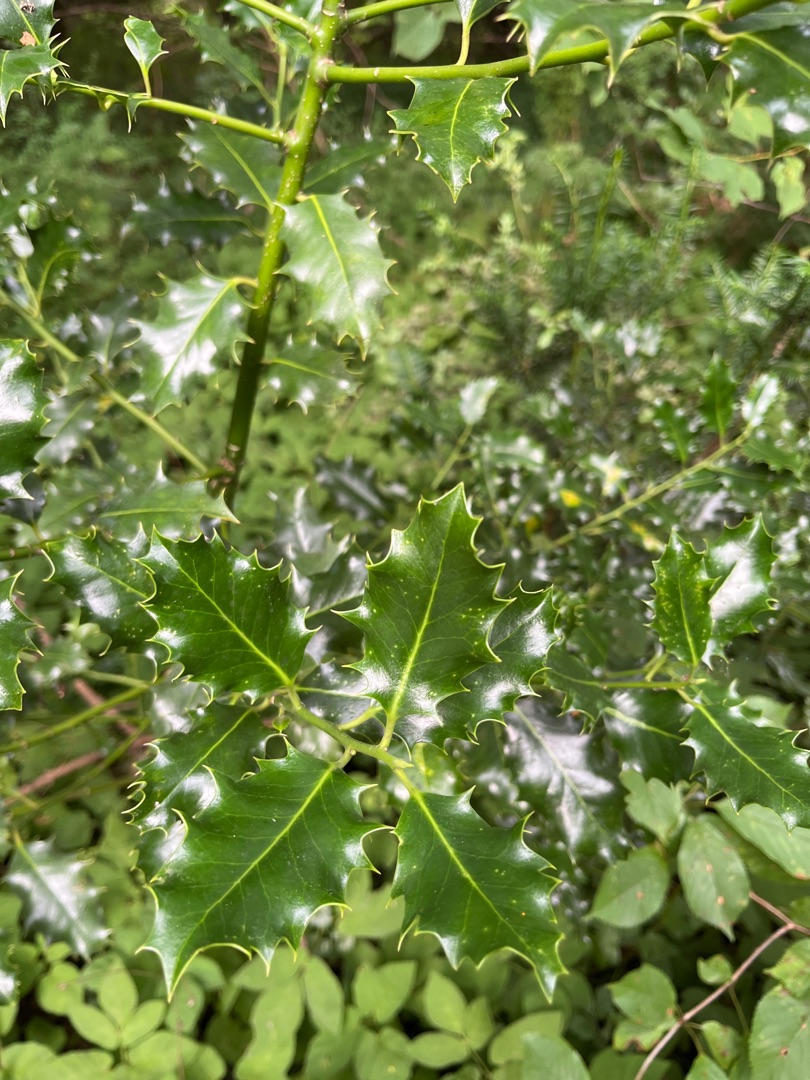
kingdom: Plantae
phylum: Tracheophyta
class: Magnoliopsida
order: Aquifoliales
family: Aquifoliaceae
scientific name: Aquifoliaceae
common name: Kristtornfamilien
